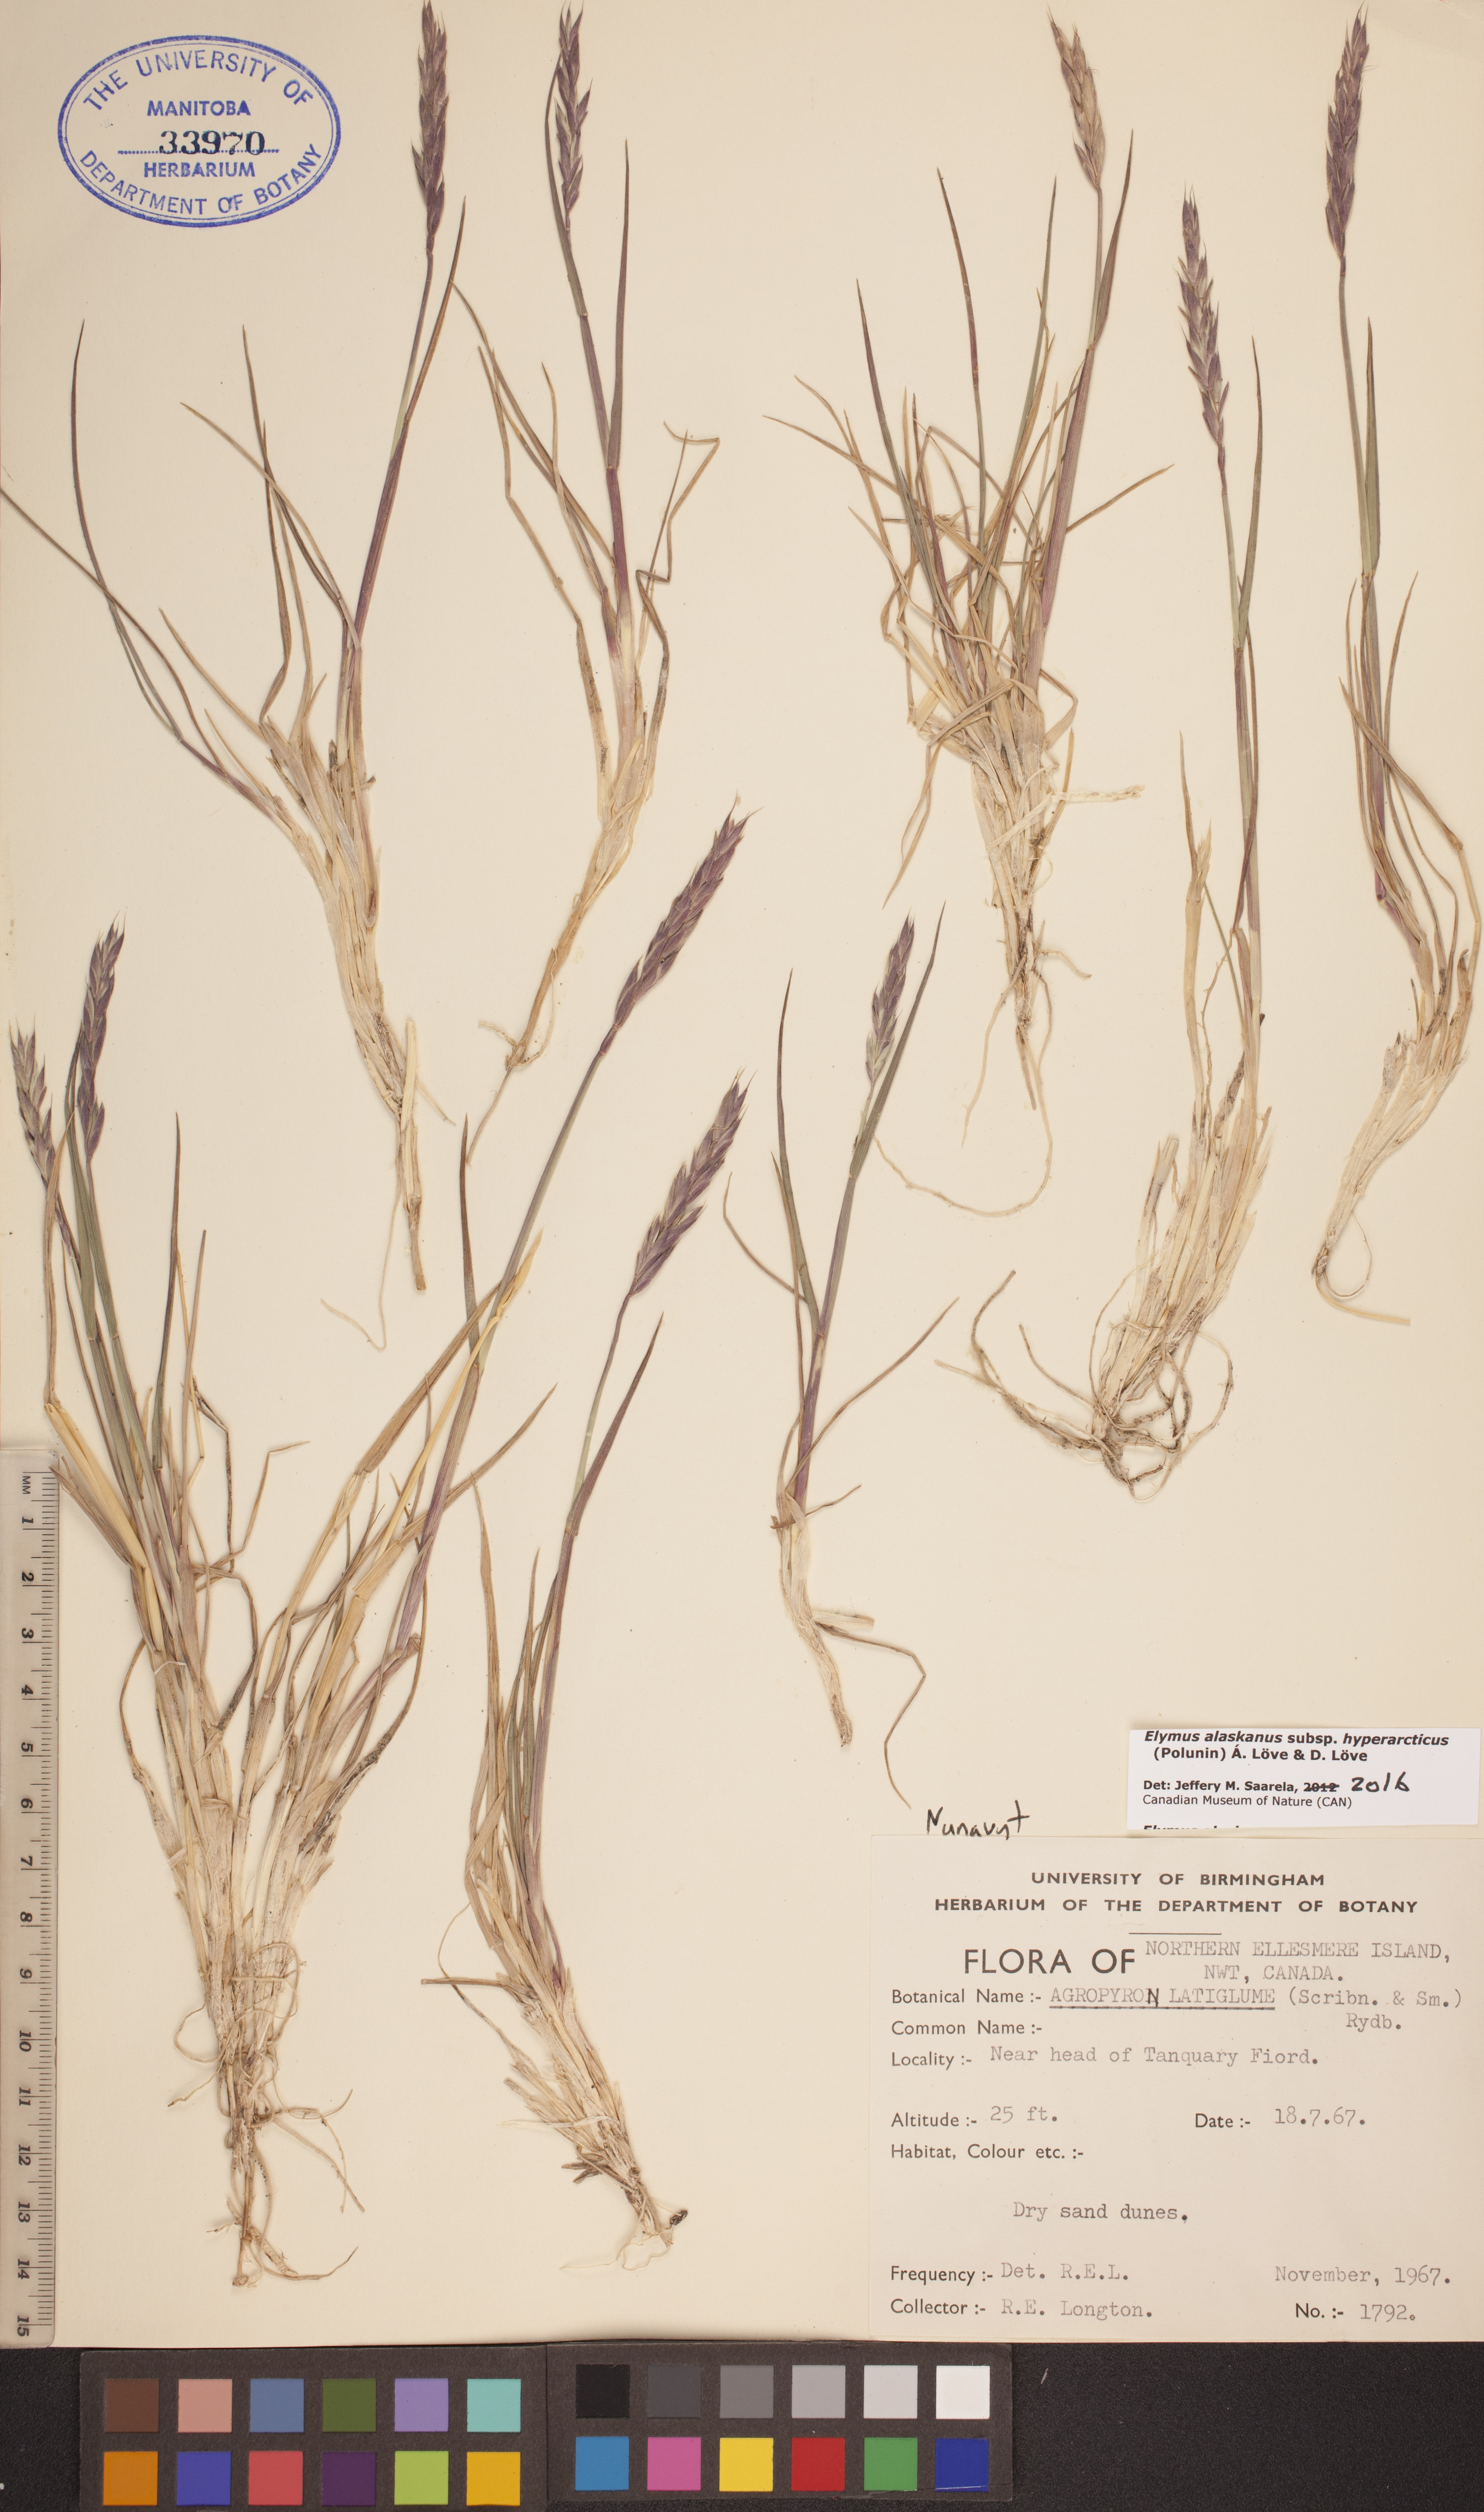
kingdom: Plantae
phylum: Tracheophyta
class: Liliopsida
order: Poales
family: Poaceae
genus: Elymus
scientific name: Elymus sajanensis
